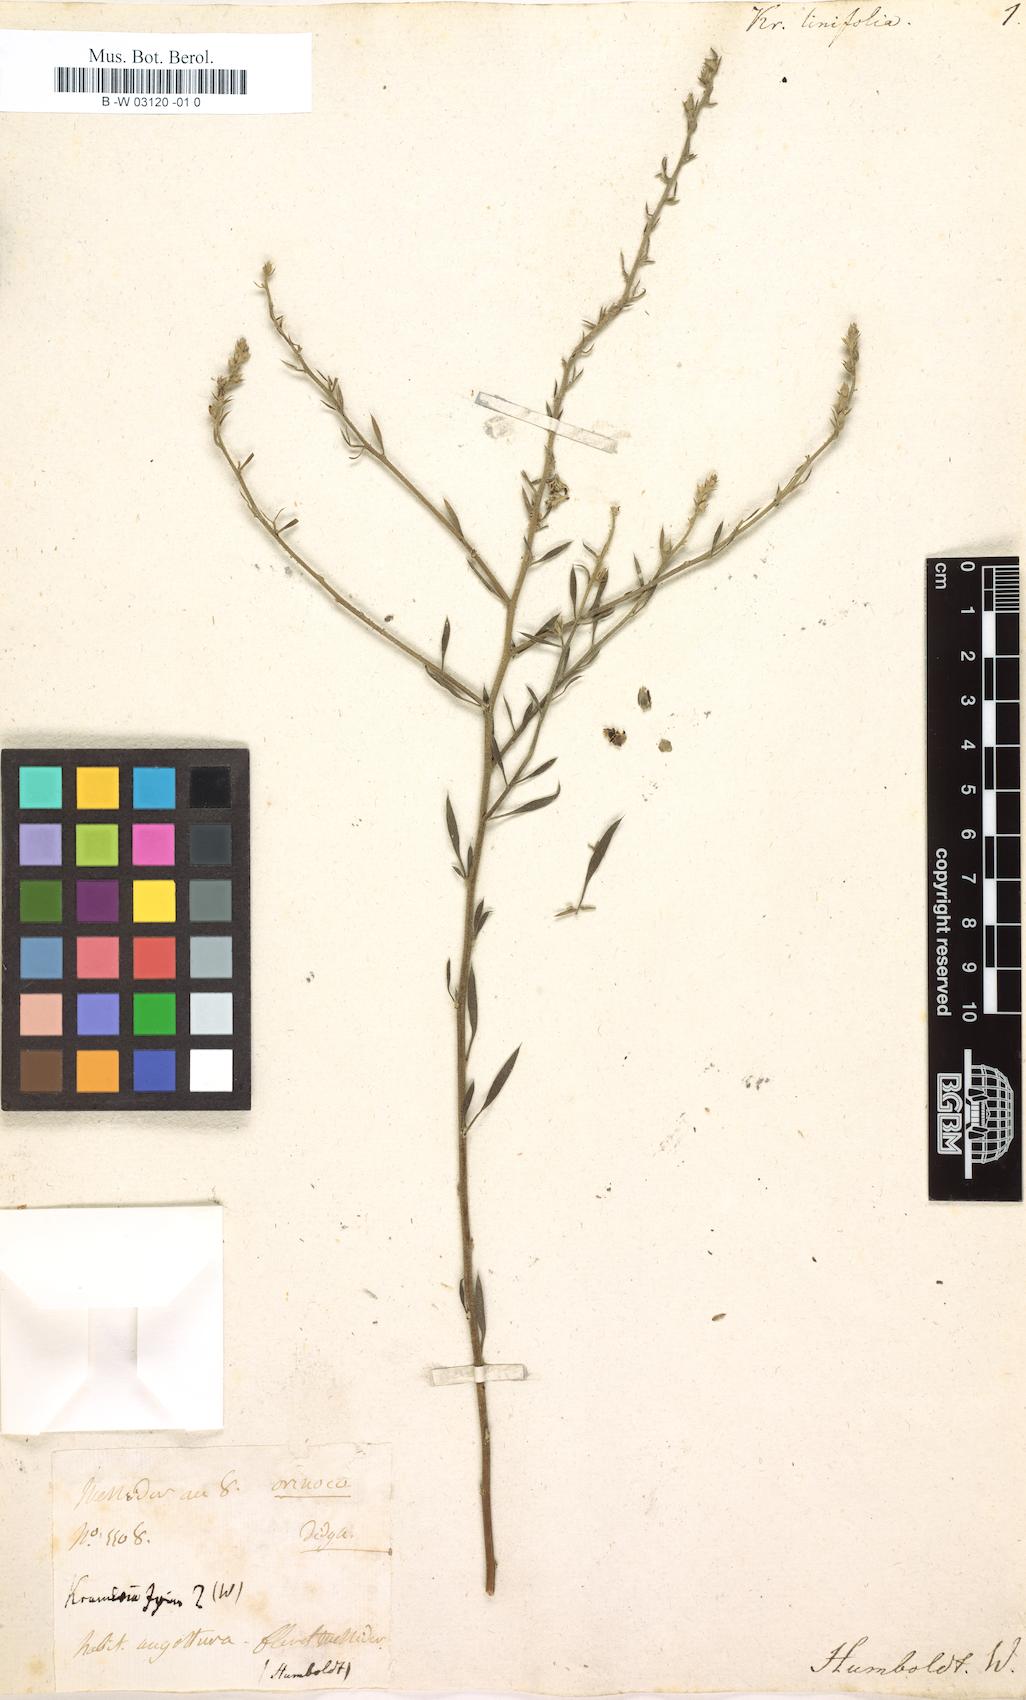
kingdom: Plantae
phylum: Tracheophyta
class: Magnoliopsida
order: Zygophyllales
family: Krameriaceae
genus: Krameria
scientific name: Krameria ixine
